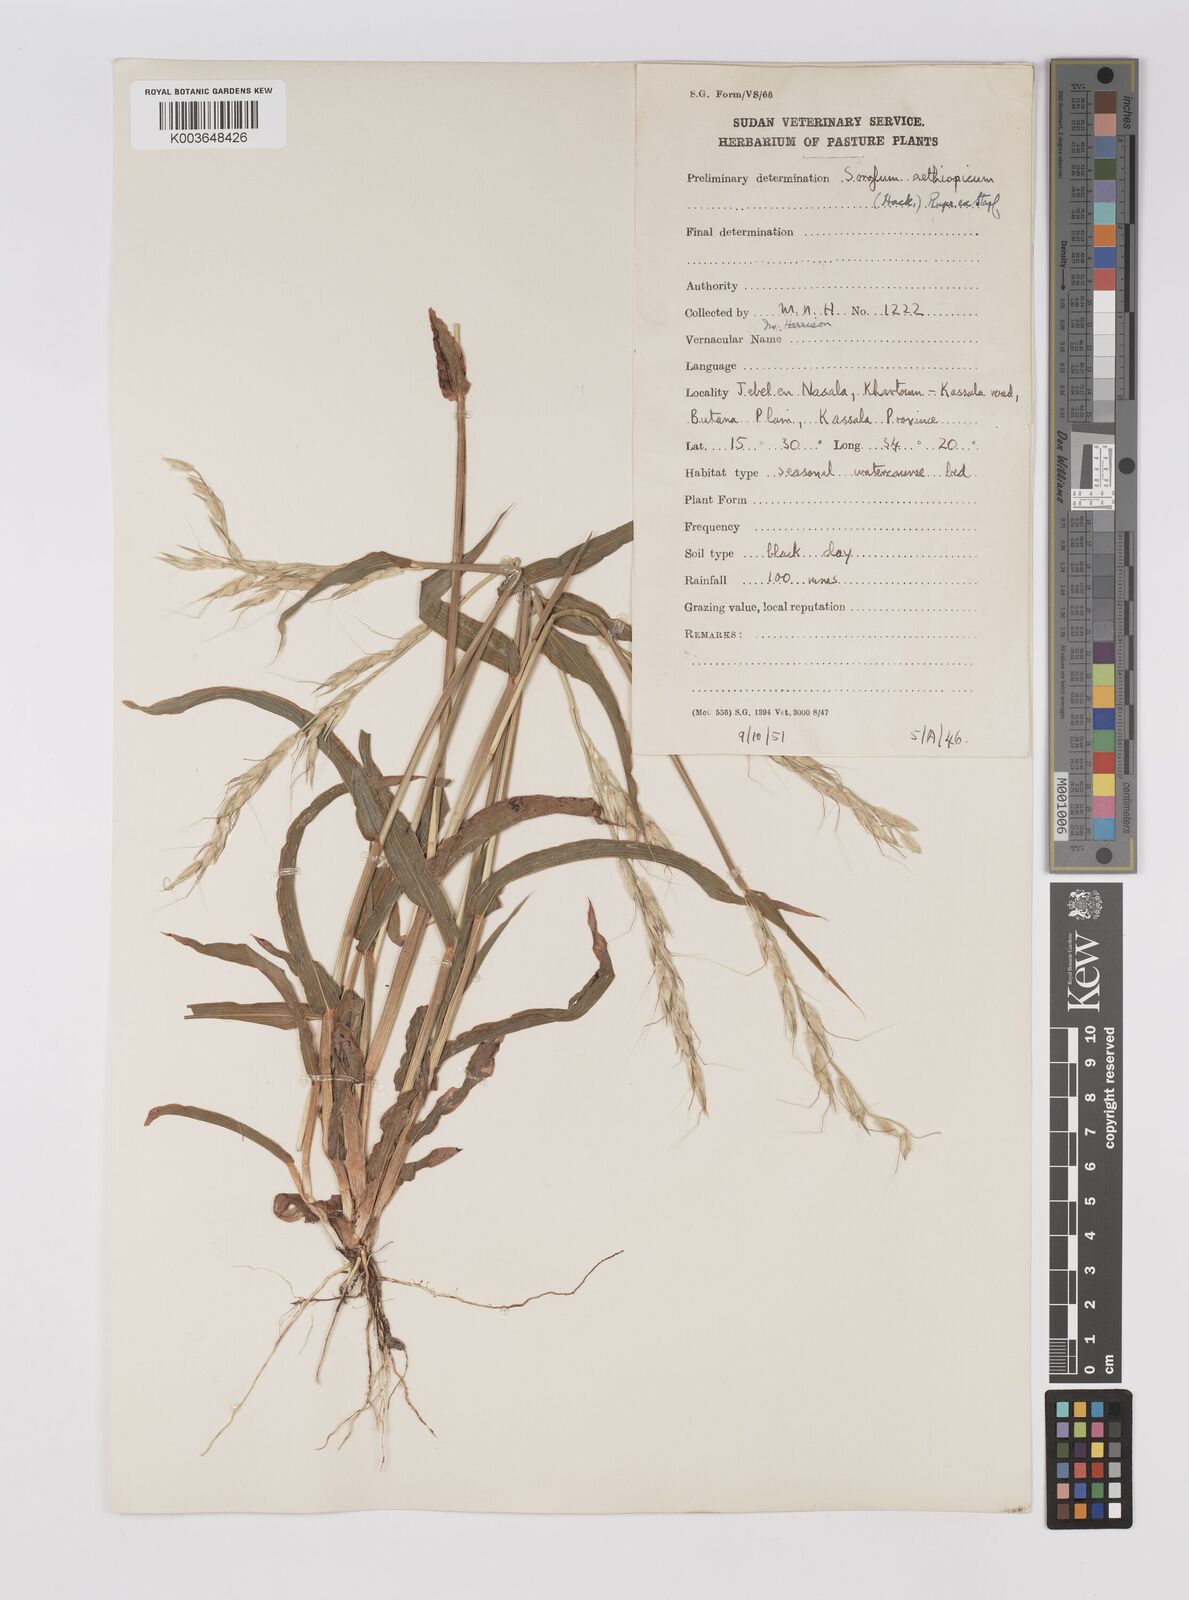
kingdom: Plantae
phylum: Tracheophyta
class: Liliopsida
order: Poales
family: Poaceae
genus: Sorghum
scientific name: Sorghum arundinaceum
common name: Sorghum
